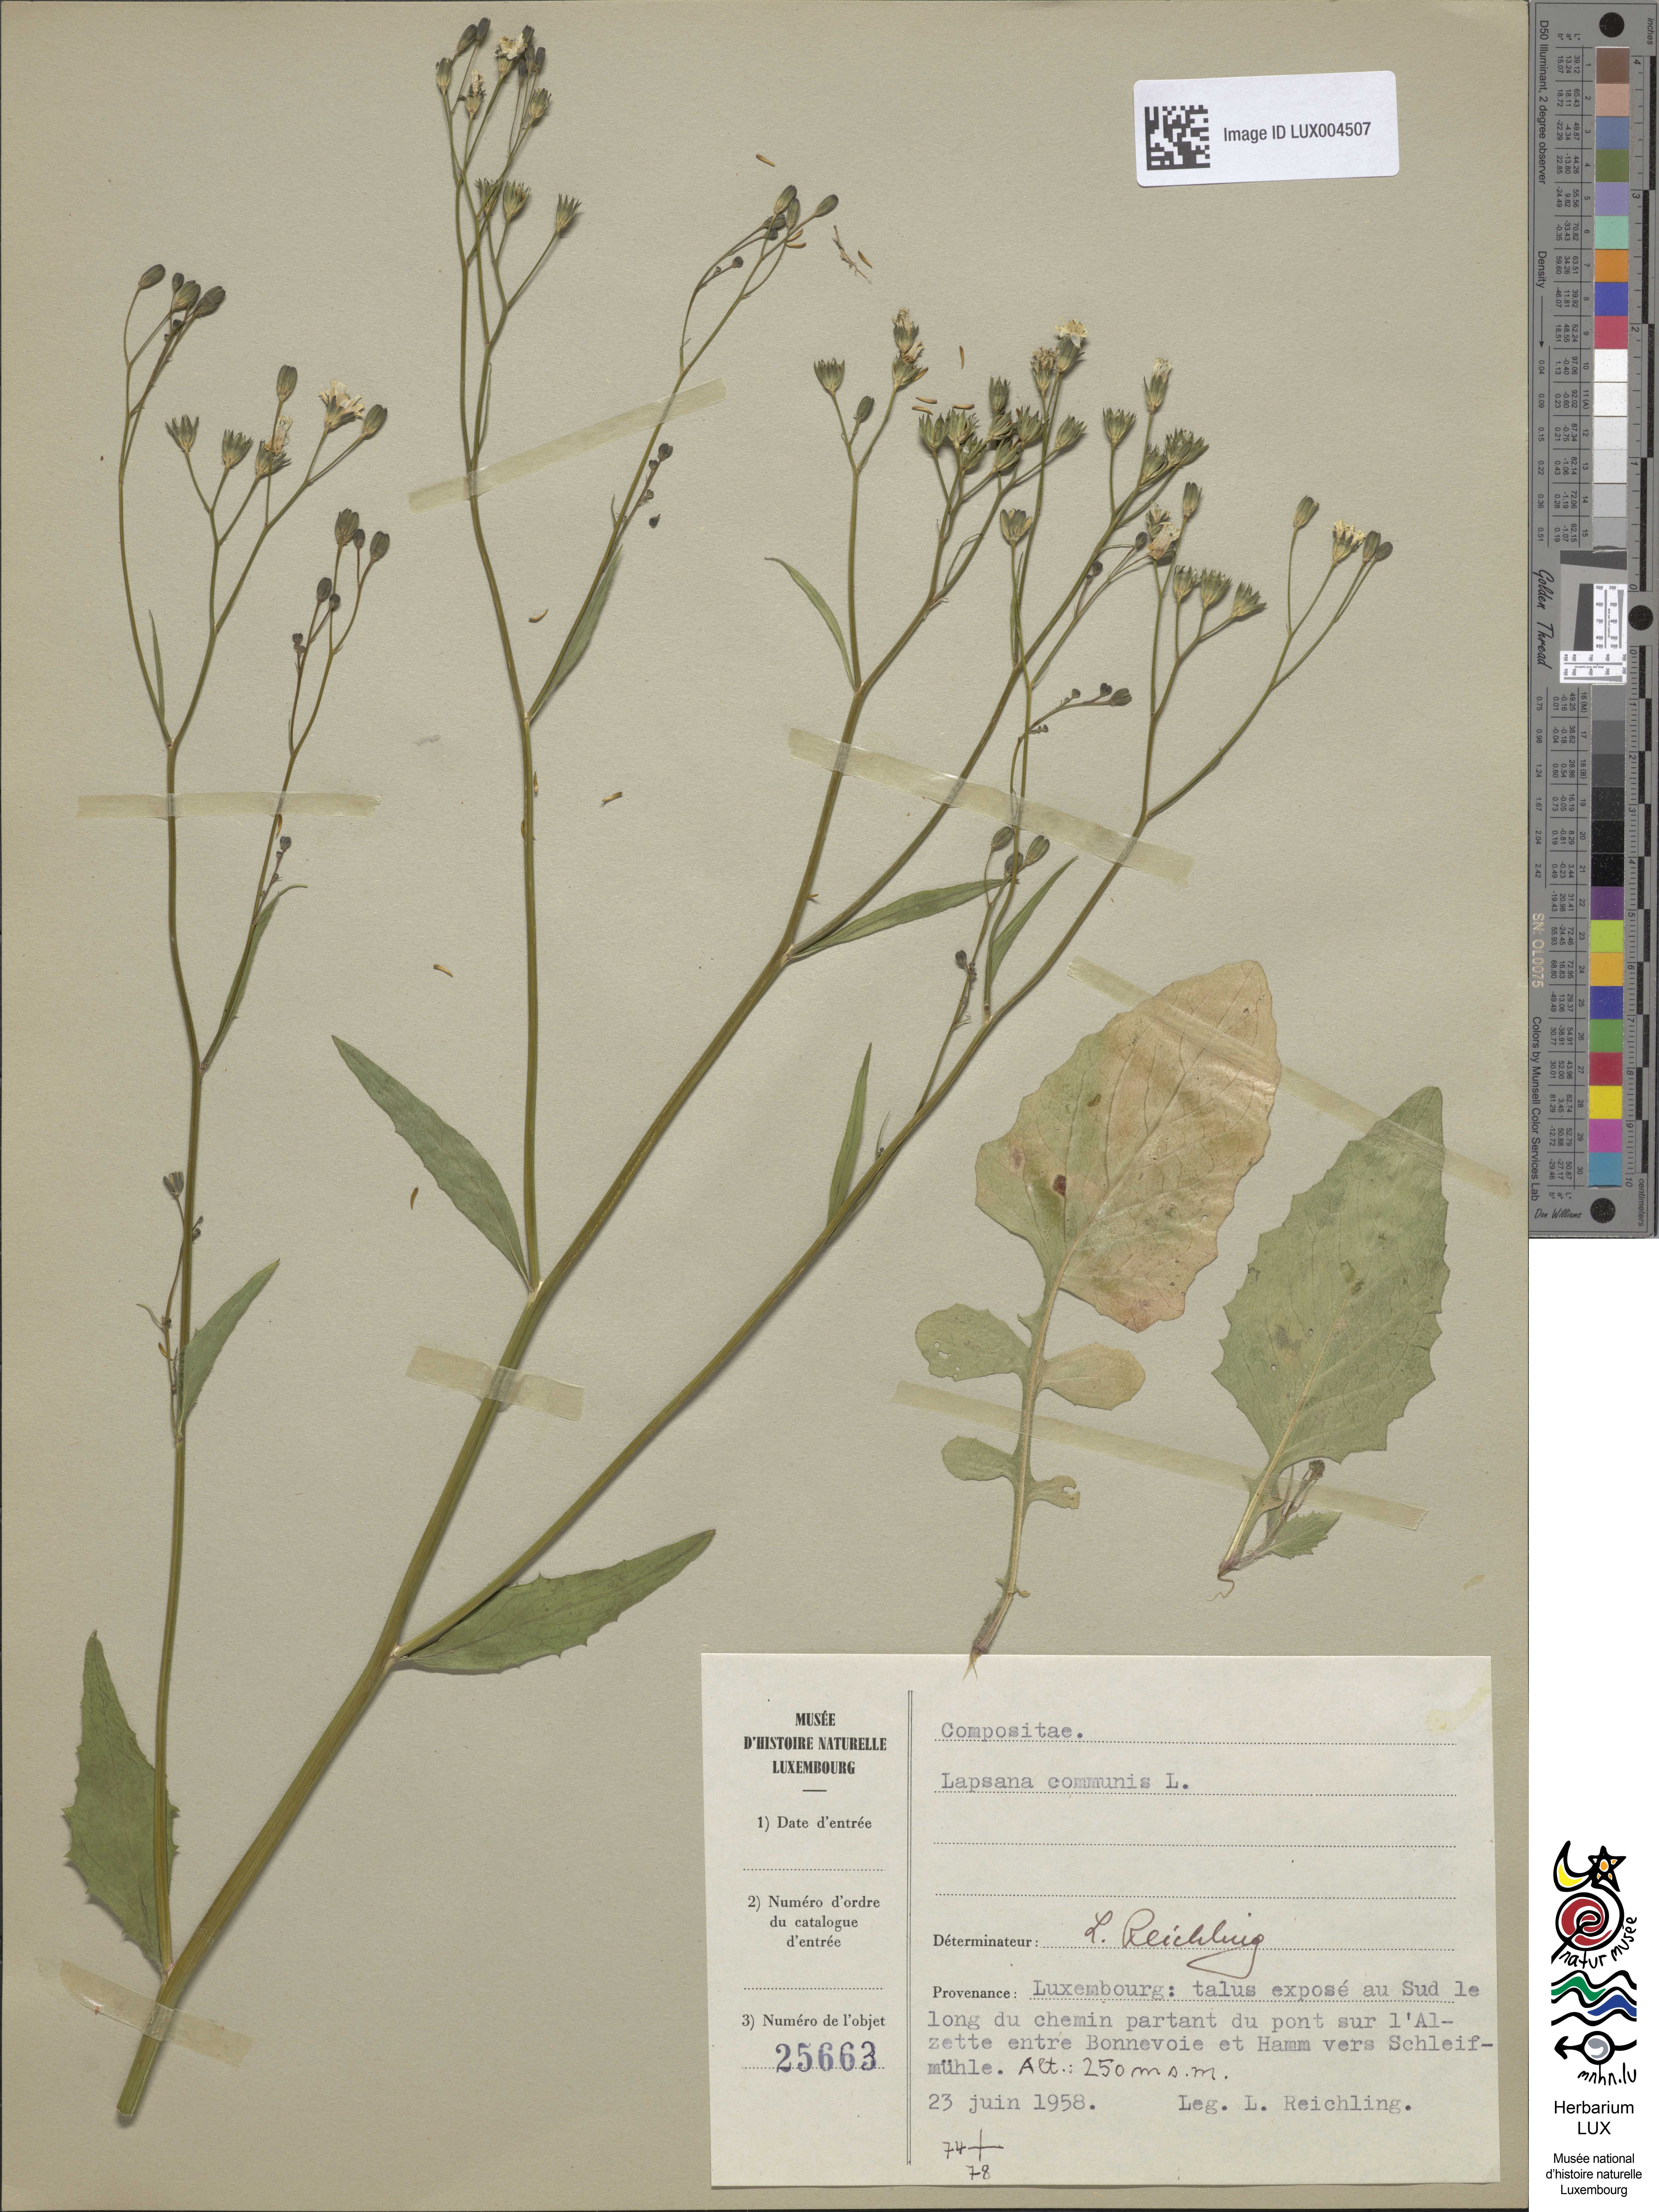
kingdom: Plantae
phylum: Tracheophyta
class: Magnoliopsida
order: Asterales
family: Asteraceae
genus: Lapsana
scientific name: Lapsana communis
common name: Nipplewort
